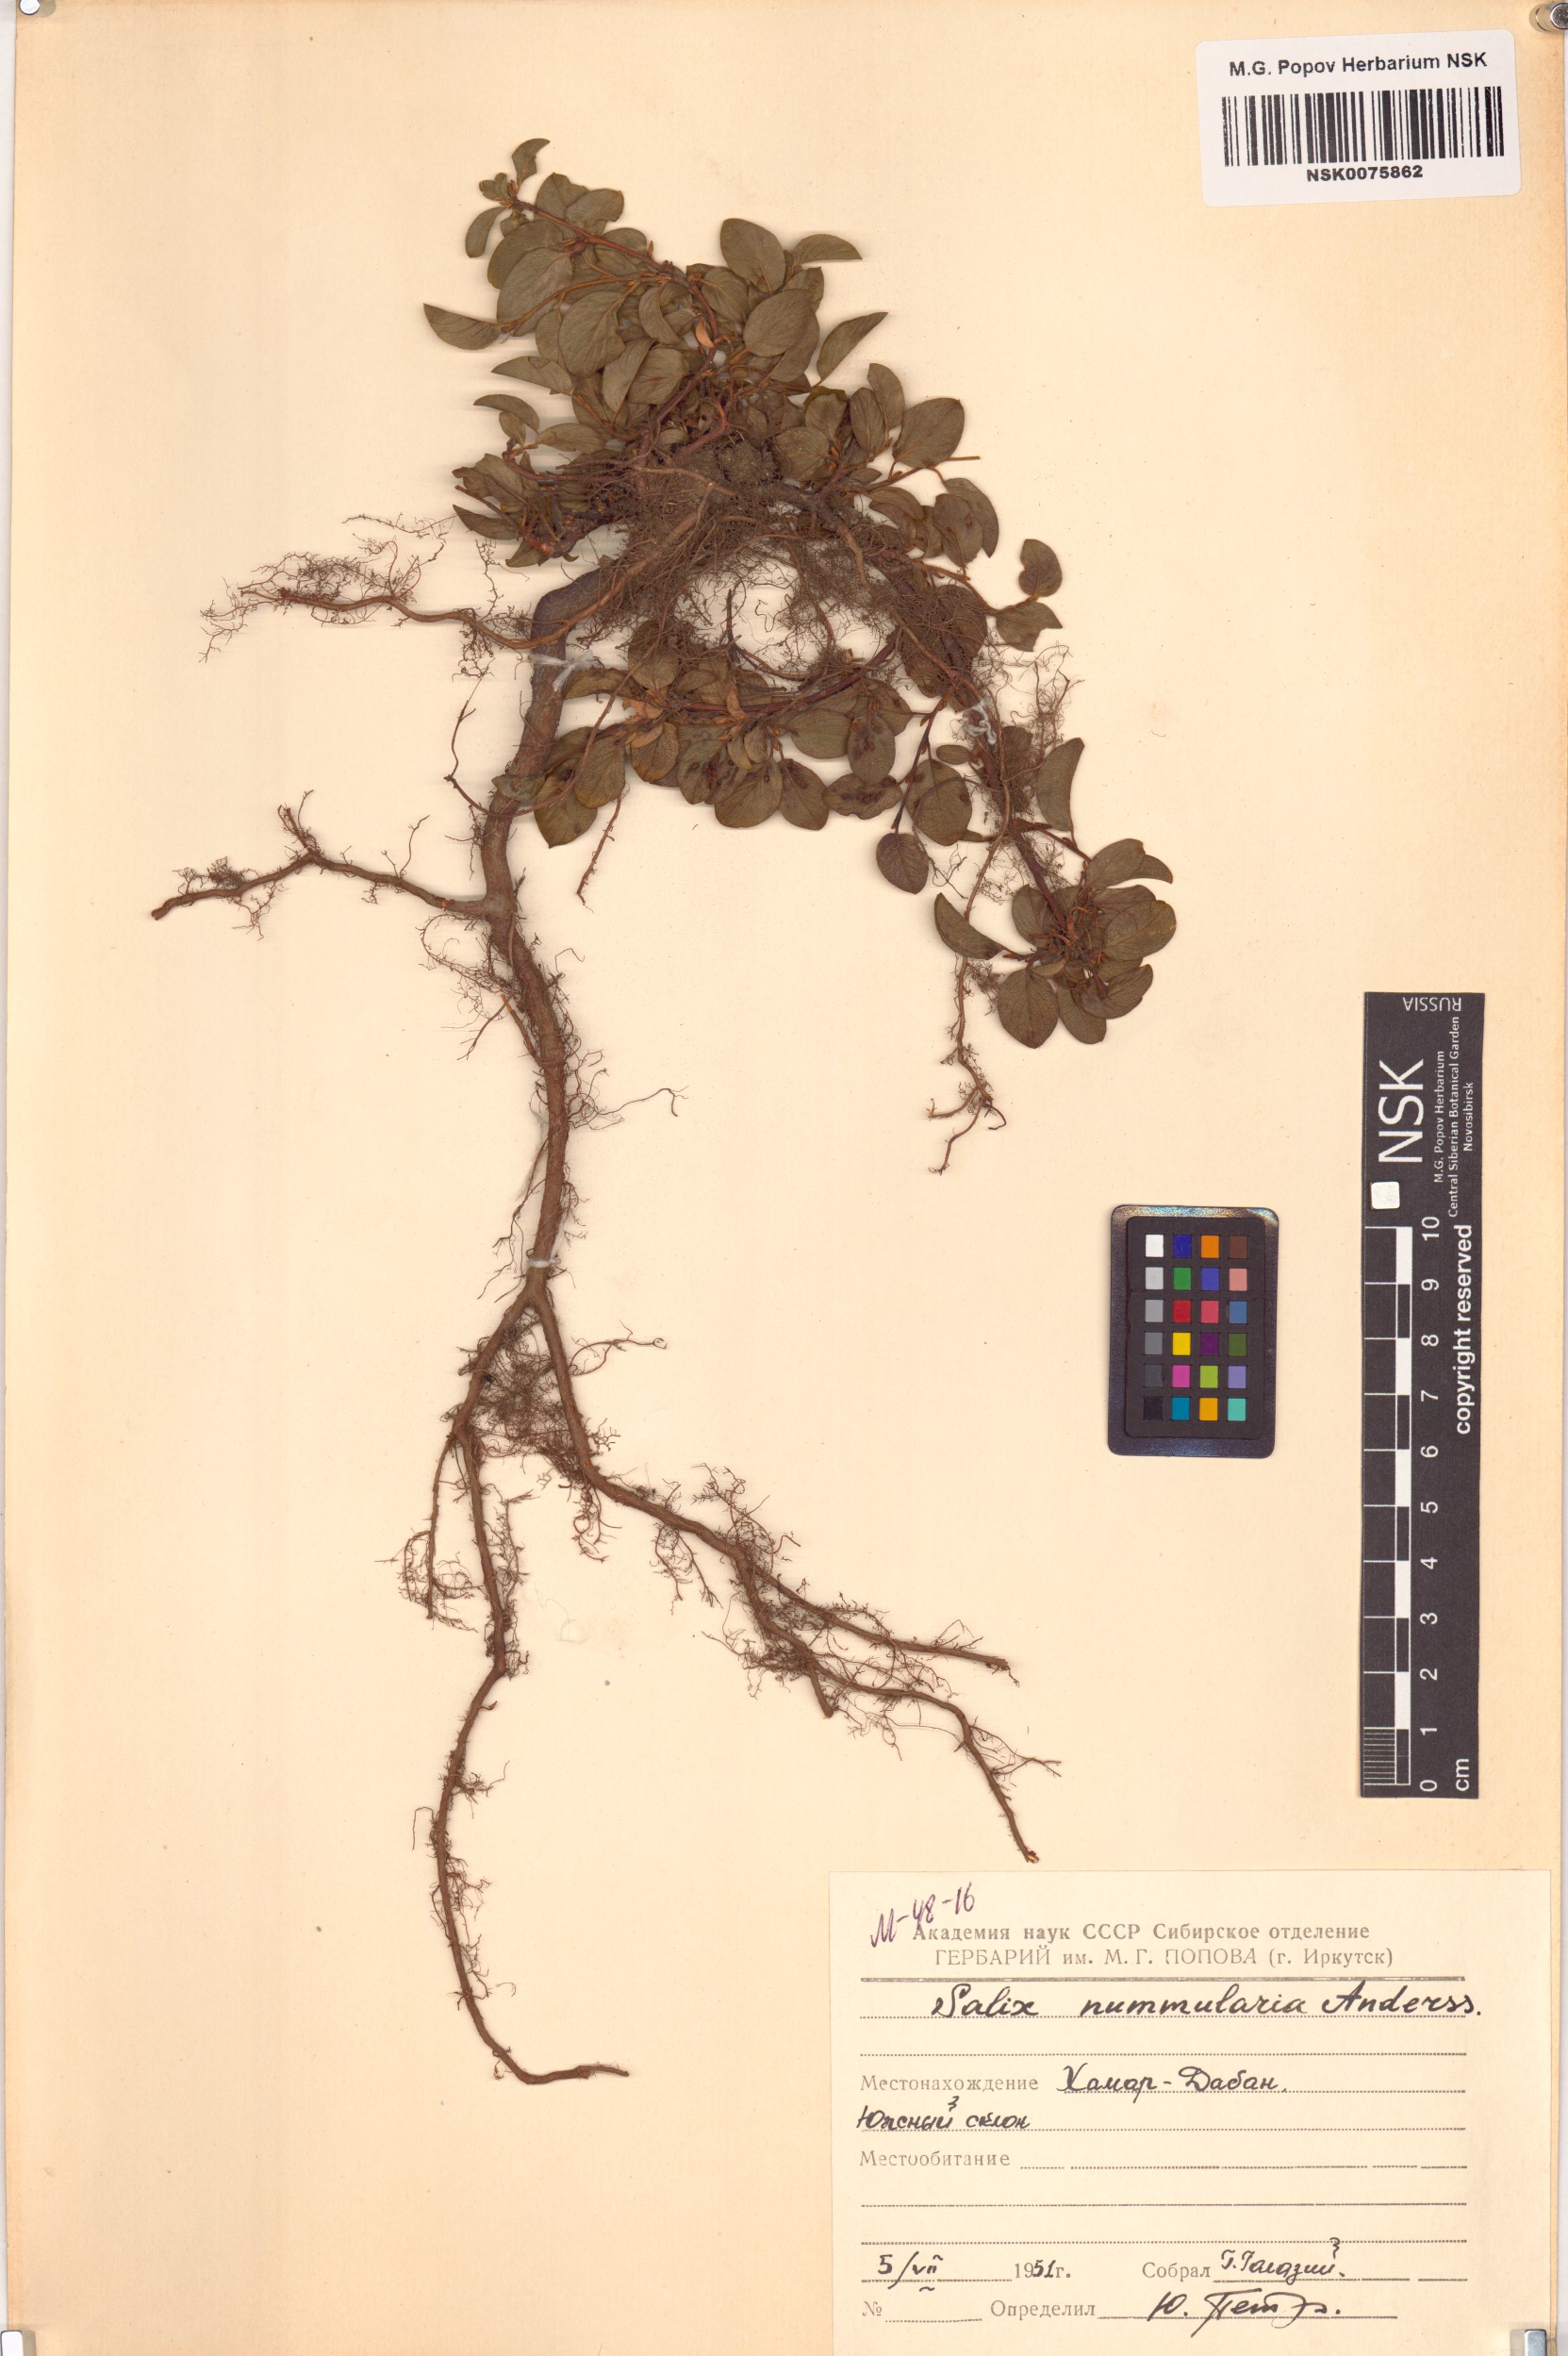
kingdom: Plantae
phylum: Tracheophyta
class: Magnoliopsida
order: Malpighiales
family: Salicaceae
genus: Salix
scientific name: Salix nummularia
